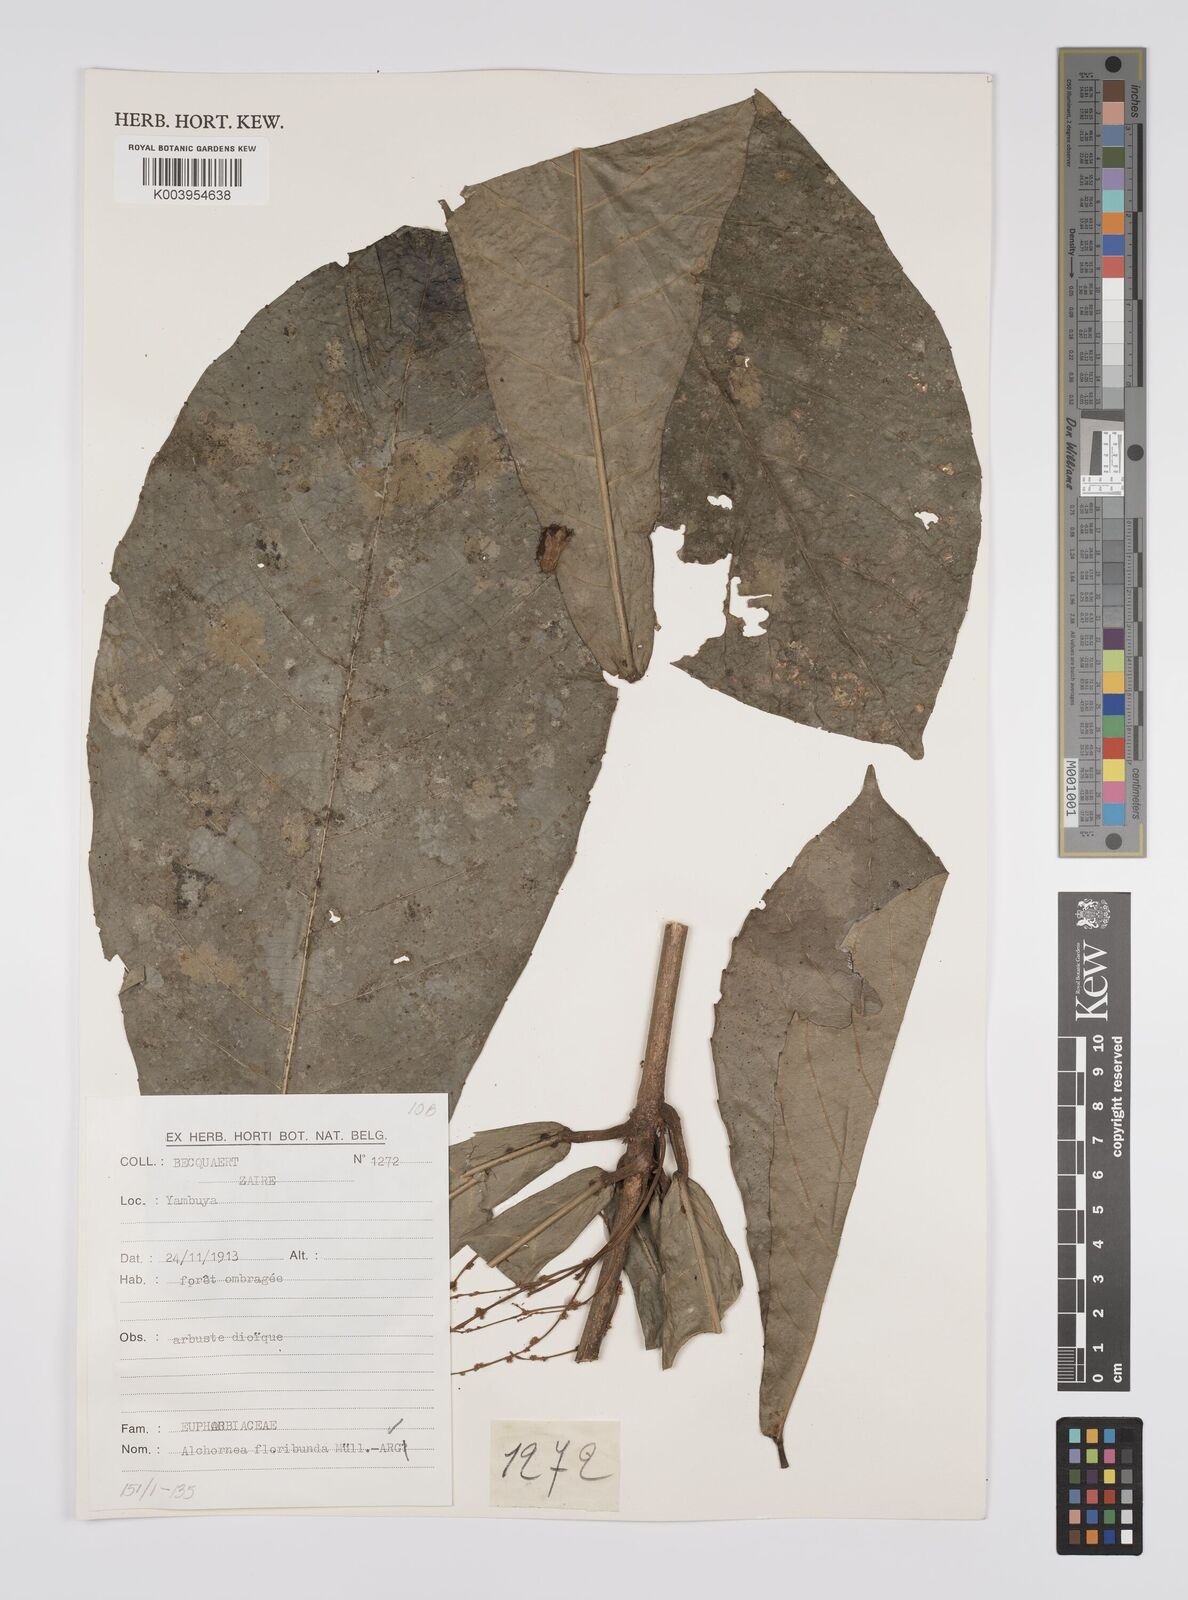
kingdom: Plantae
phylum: Tracheophyta
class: Magnoliopsida
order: Malpighiales
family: Euphorbiaceae
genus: Alchornea
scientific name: Alchornea floribunda
